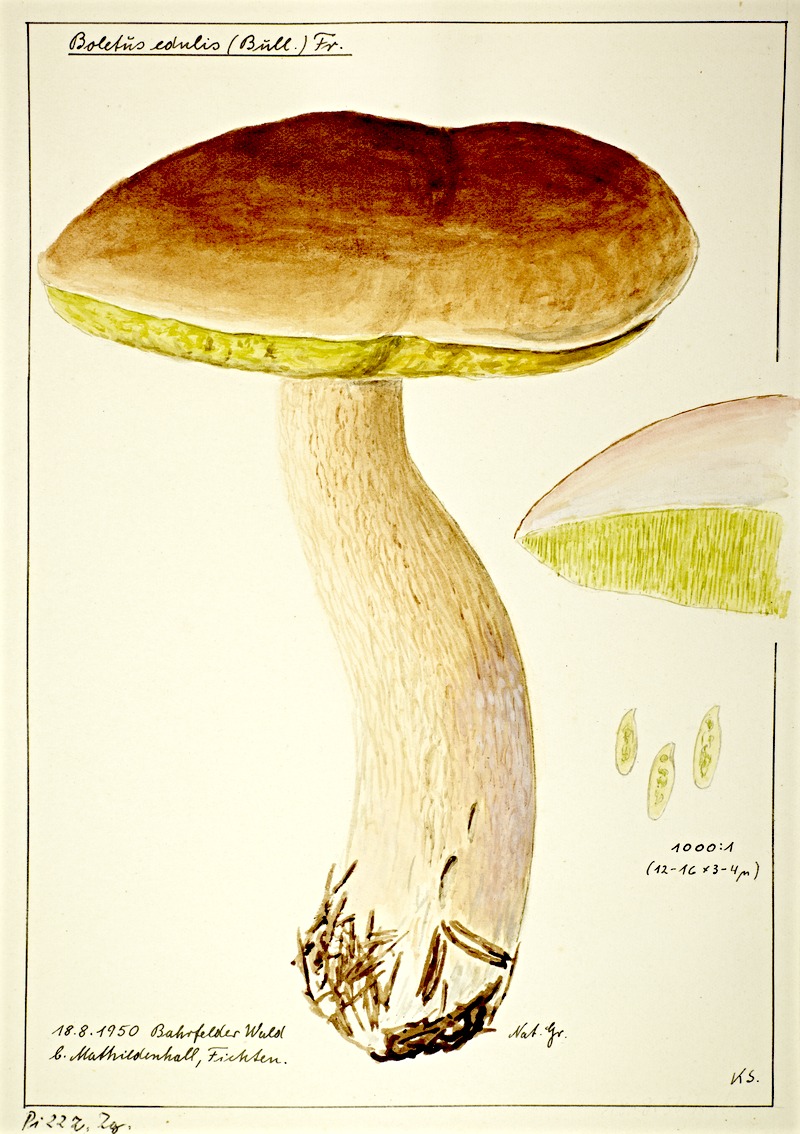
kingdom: Fungi
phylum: Basidiomycota
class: Agaricomycetes
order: Boletales
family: Boletaceae
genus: Boletus
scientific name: Boletus edulis
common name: Cep
